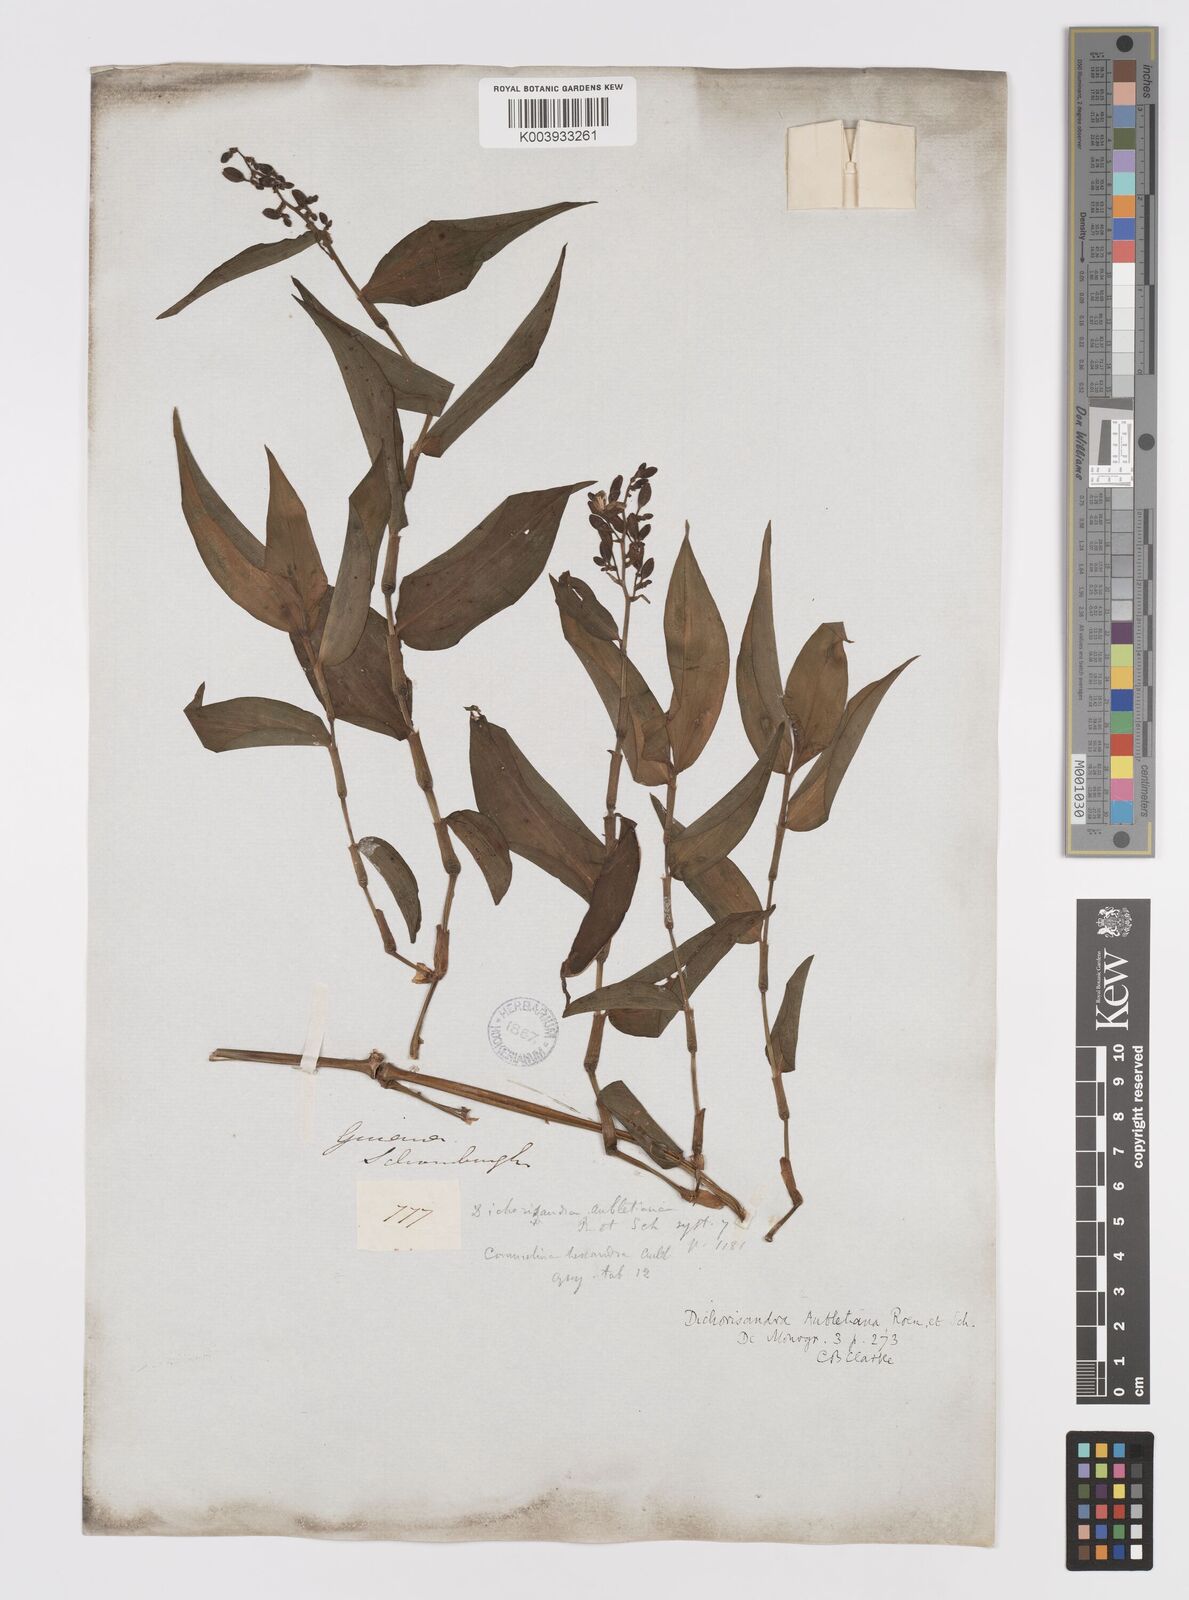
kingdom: Plantae
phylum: Tracheophyta
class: Liliopsida
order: Commelinales
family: Commelinaceae
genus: Dichorisandra
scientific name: Dichorisandra hexandra
